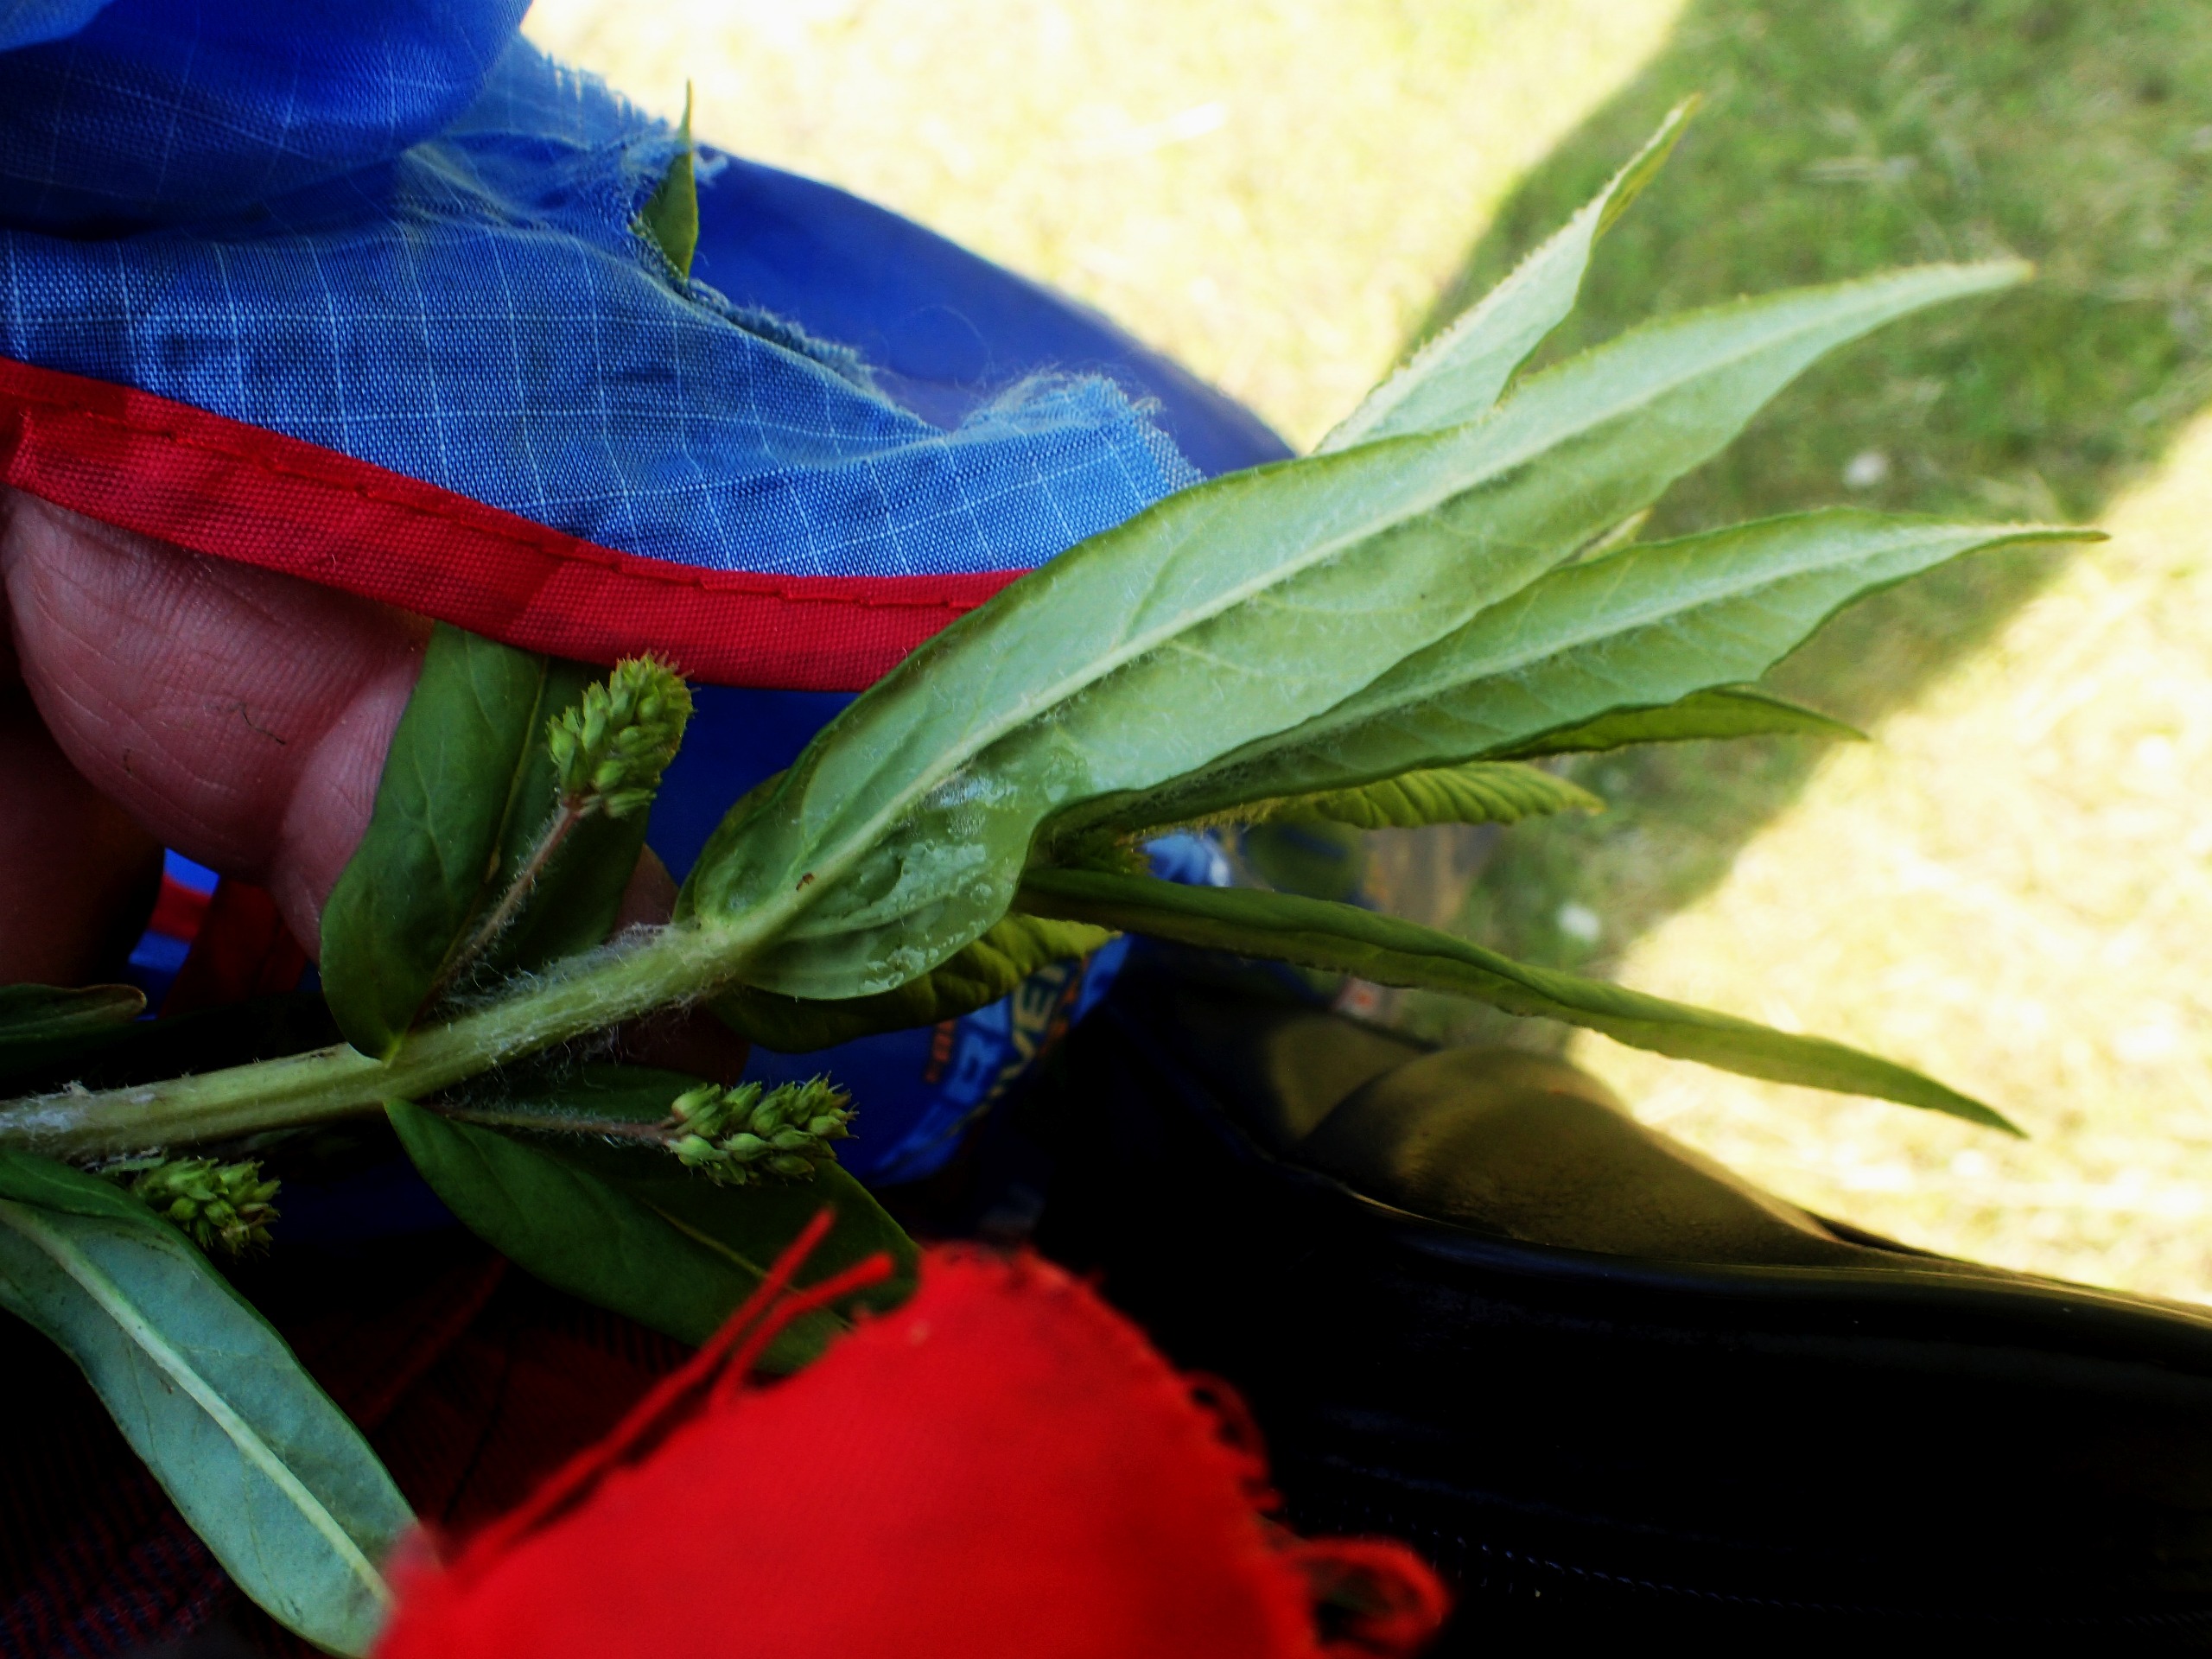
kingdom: Plantae
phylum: Tracheophyta
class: Magnoliopsida
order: Ericales
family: Primulaceae
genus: Lysimachia
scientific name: Lysimachia thyrsiflora
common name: Dusk-fredløs
